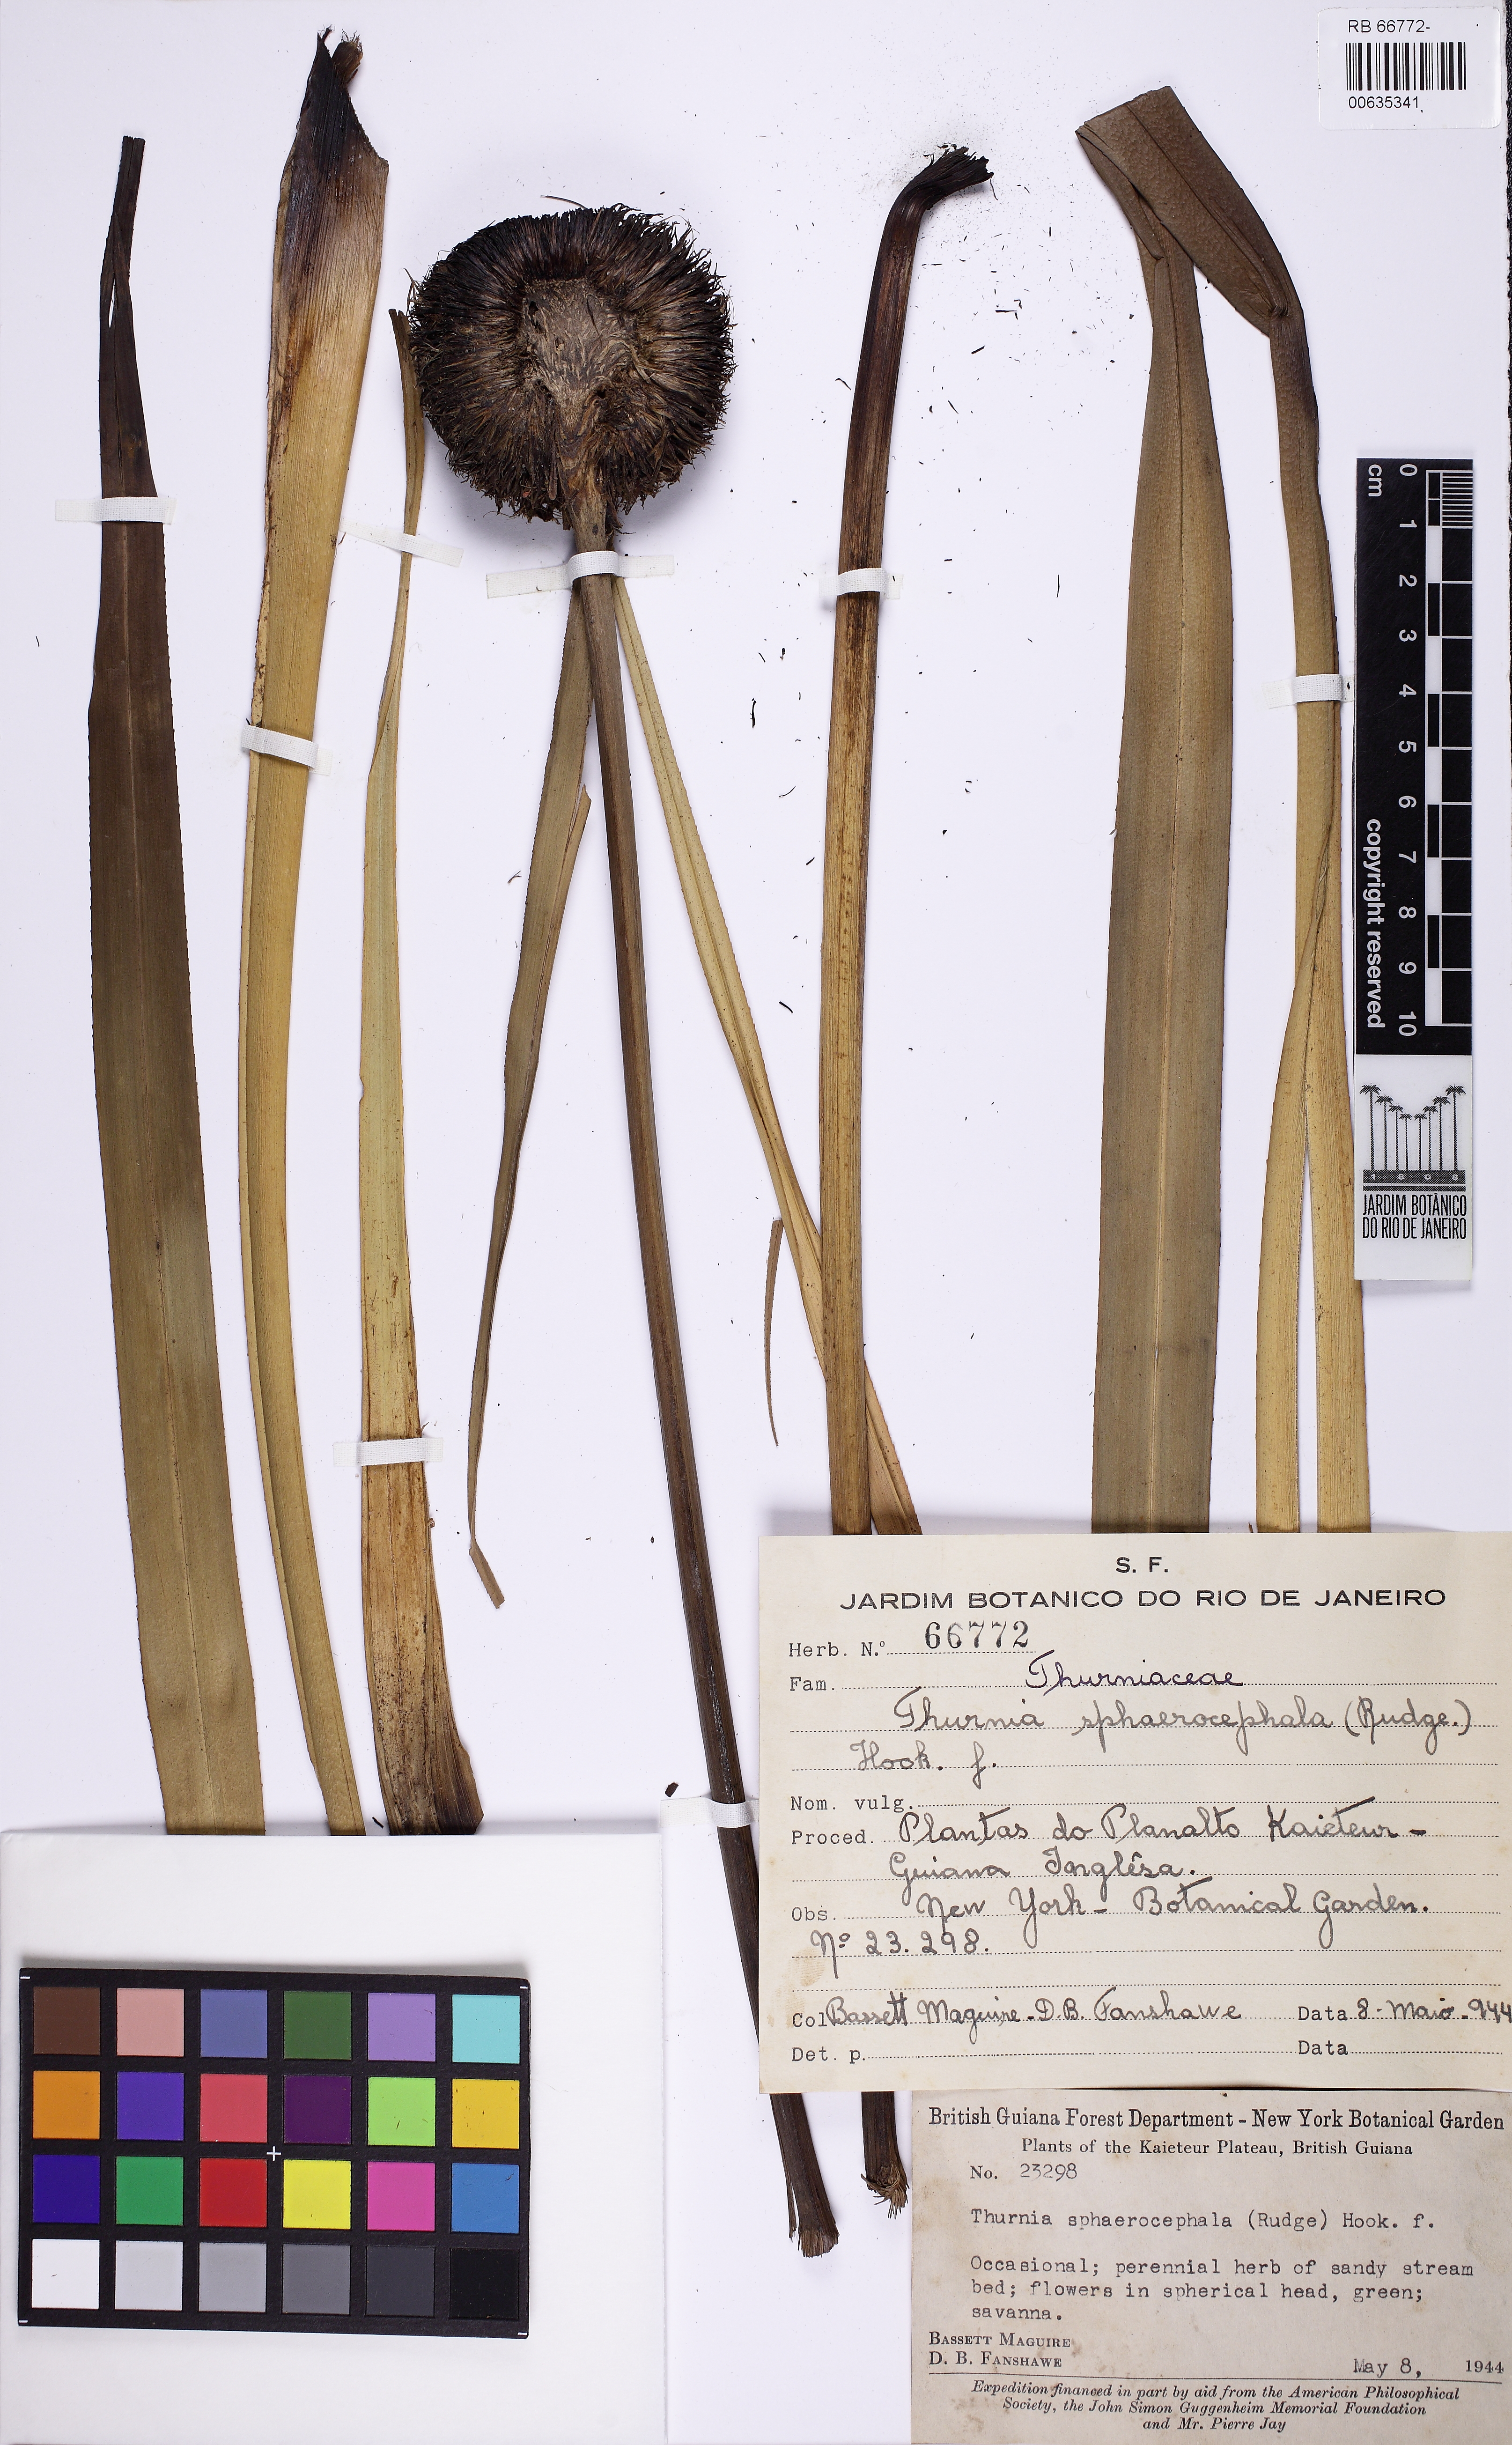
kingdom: Plantae
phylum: Tracheophyta
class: Liliopsida
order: Poales
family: Thurniaceae
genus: Thurnia
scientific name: Thurnia sphaerocephala
